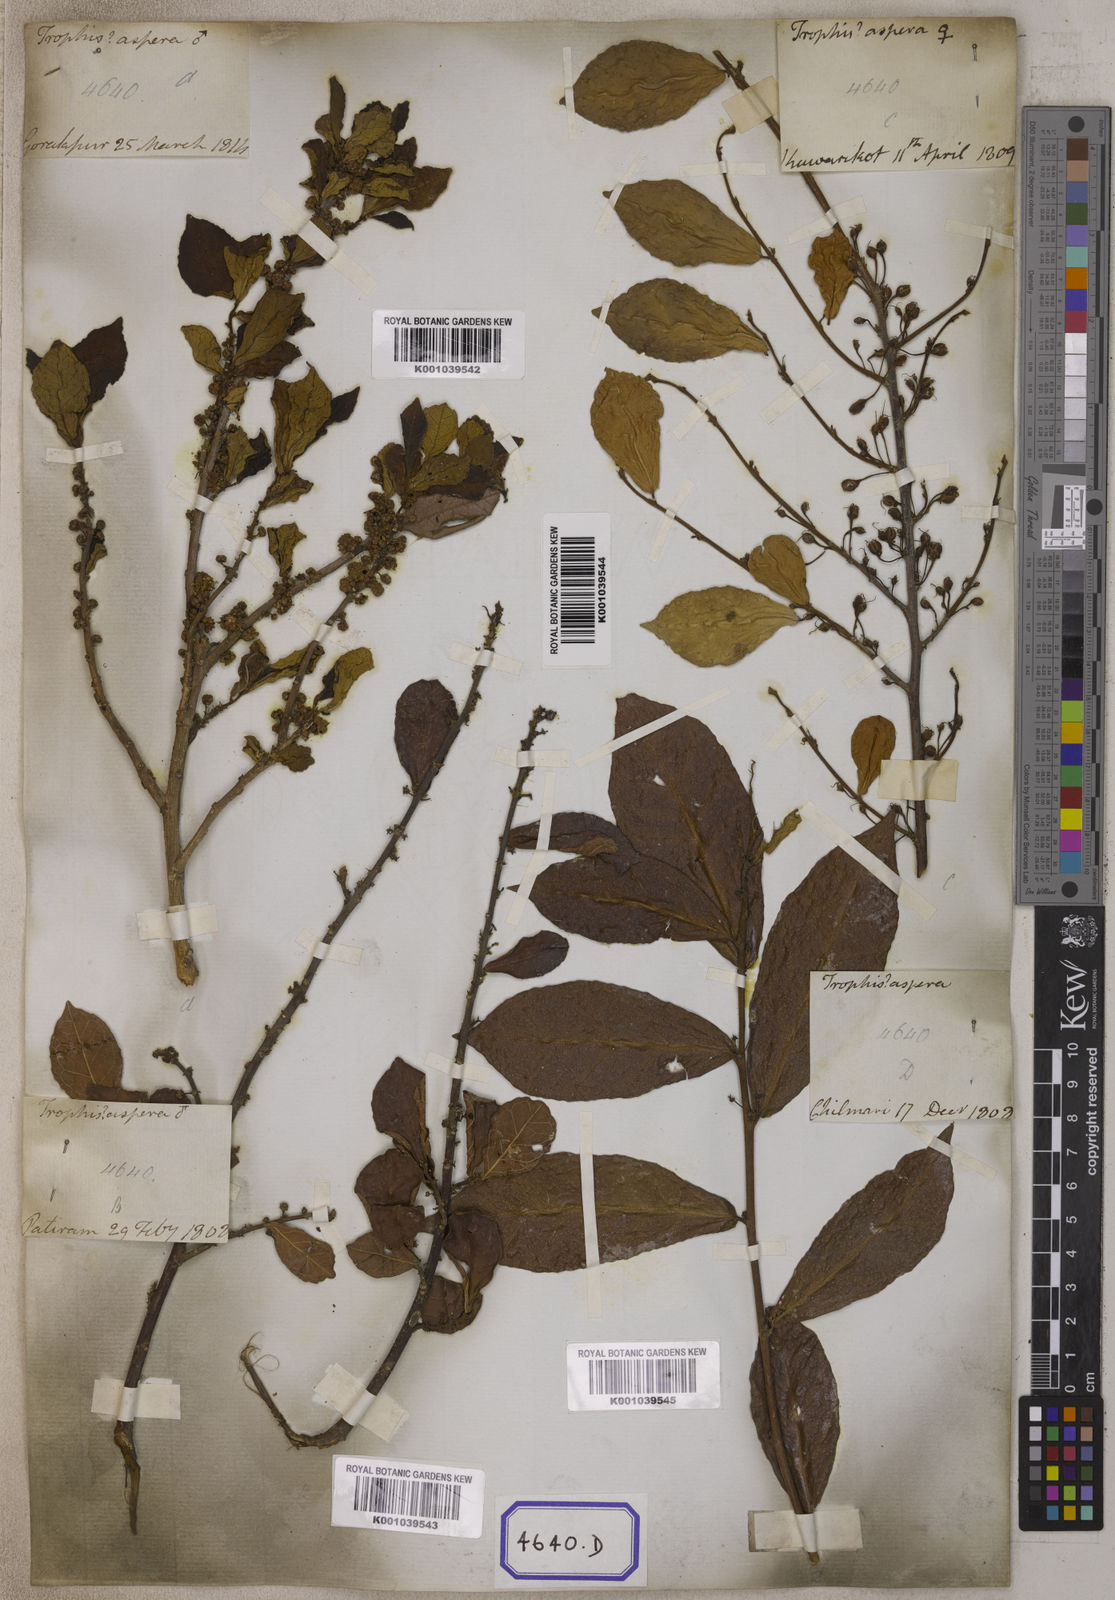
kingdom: Plantae
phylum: Tracheophyta
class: Magnoliopsida
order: Rosales
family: Moraceae
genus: Streblus
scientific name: Streblus asper
